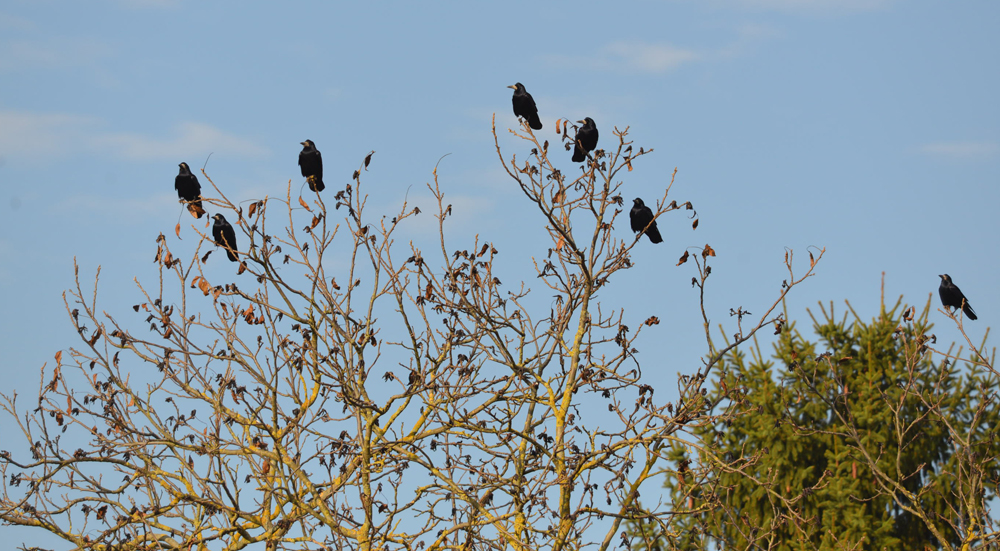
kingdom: Animalia
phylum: Chordata
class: Aves
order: Passeriformes
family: Corvidae
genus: Corvus
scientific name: Corvus frugilegus
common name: Rook
